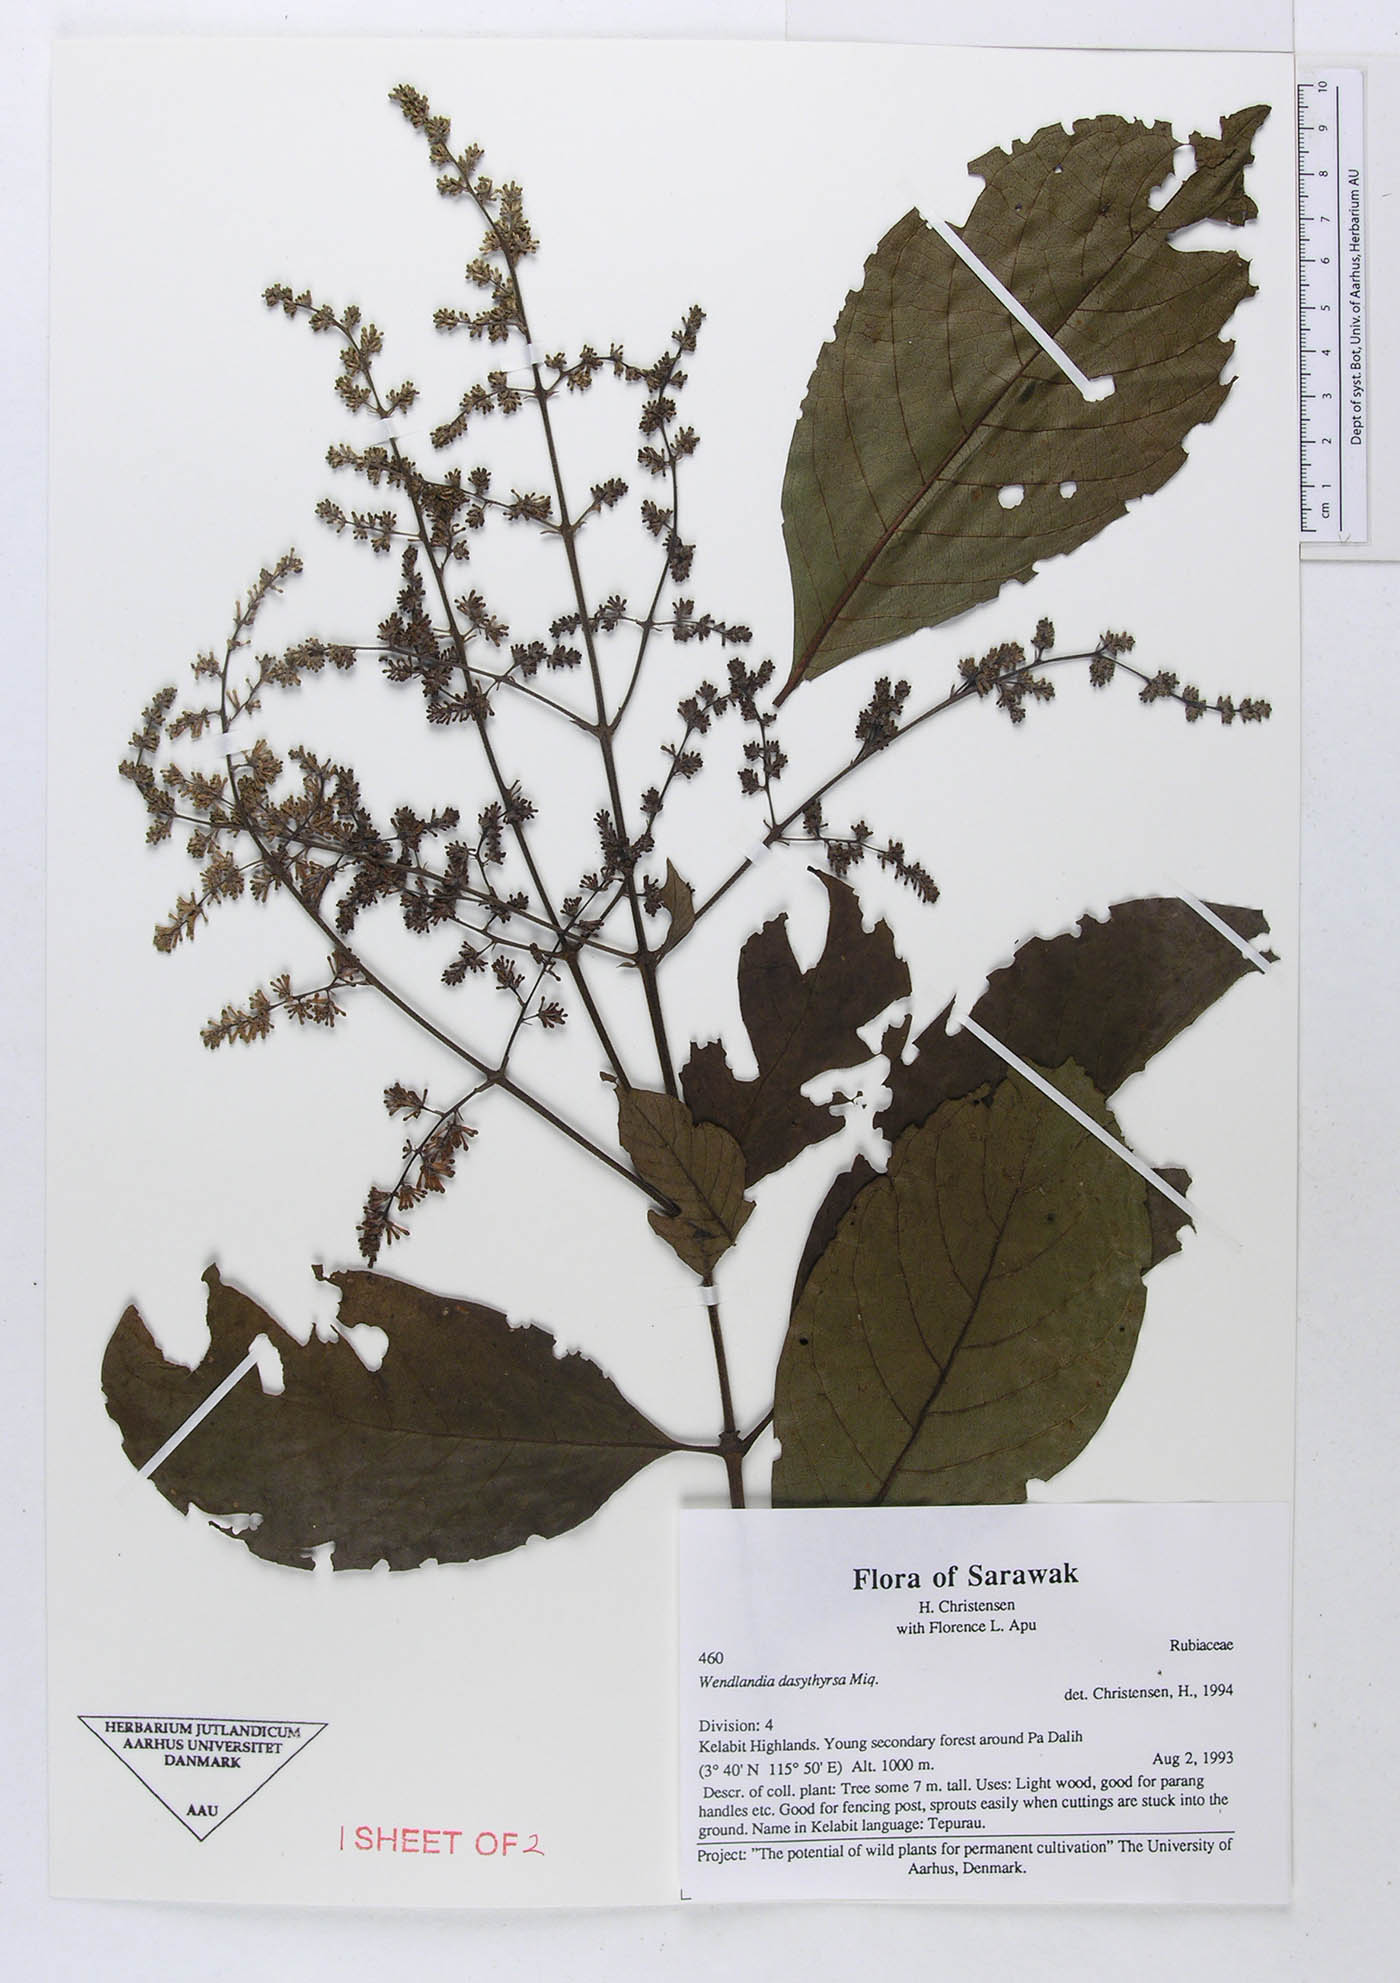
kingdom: Plantae
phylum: Tracheophyta
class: Magnoliopsida
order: Gentianales
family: Rubiaceae
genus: Wendlandia
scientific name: Wendlandia dasythyrsa
